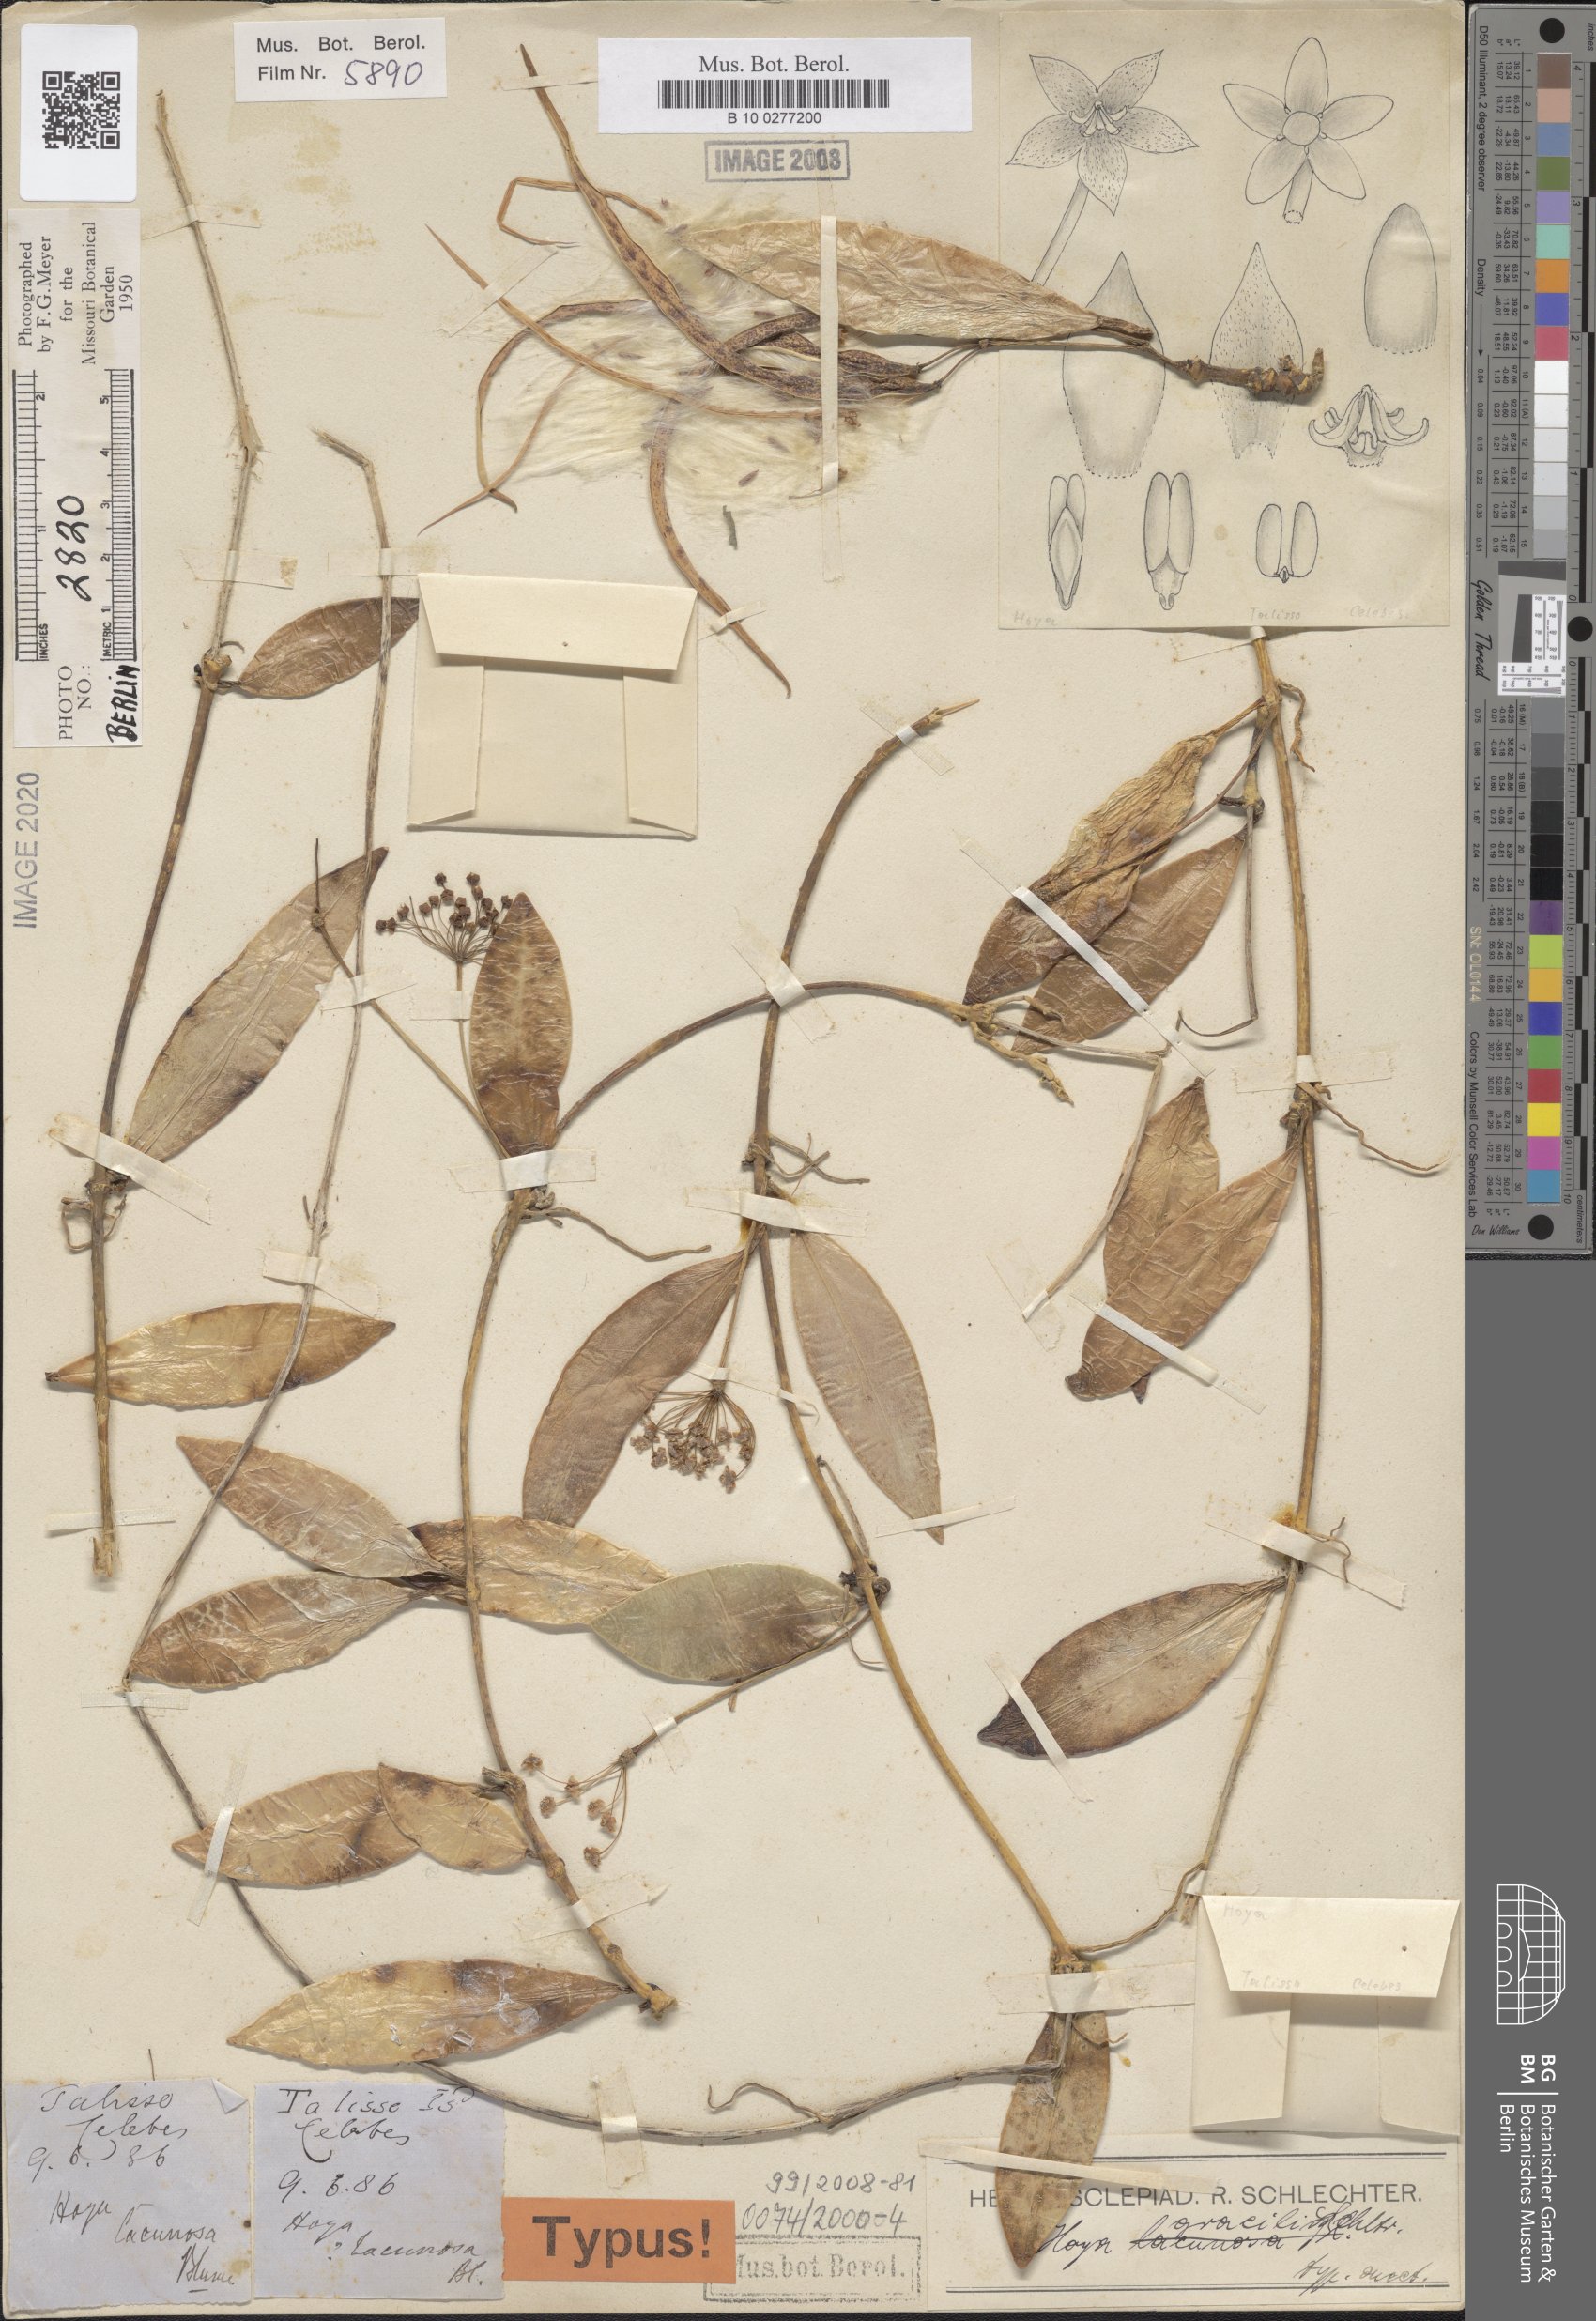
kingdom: Plantae
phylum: Tracheophyta
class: Magnoliopsida
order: Gentianales
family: Apocynaceae
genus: Hoya
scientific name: Hoya gracilis
